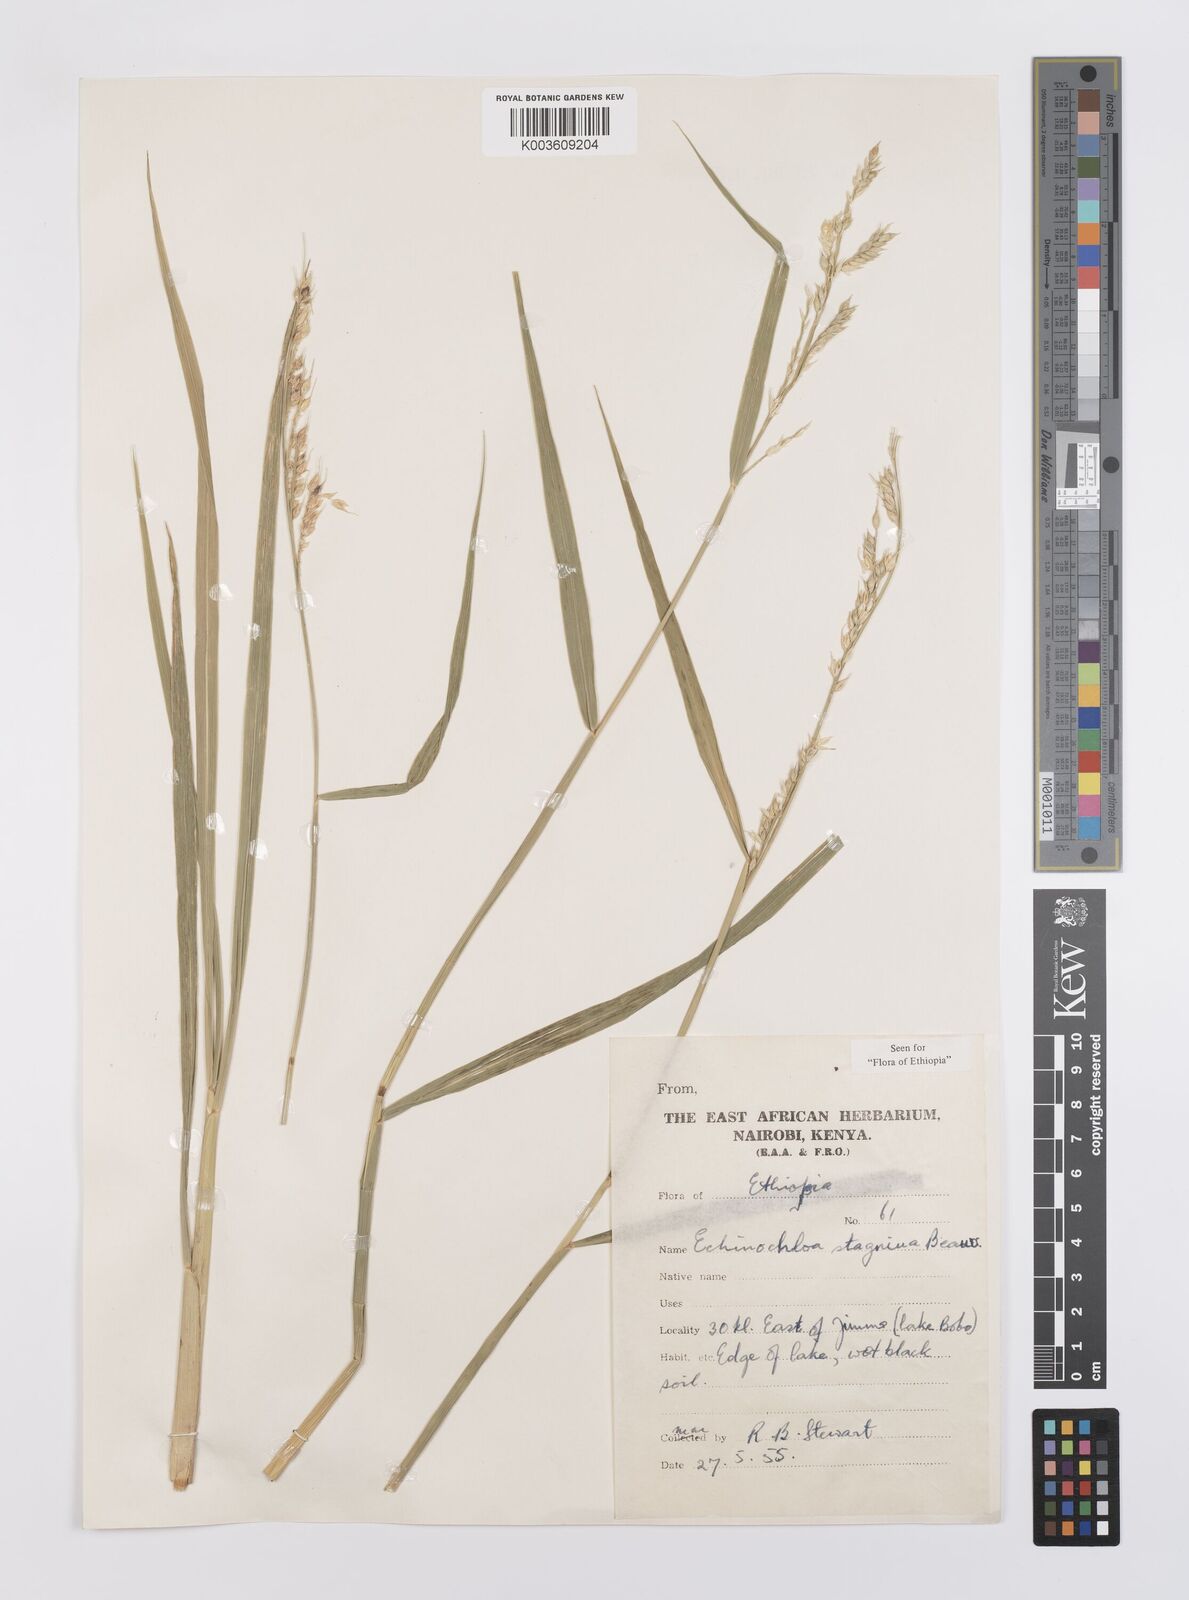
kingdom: Plantae
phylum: Tracheophyta
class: Liliopsida
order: Poales
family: Poaceae
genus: Echinochloa
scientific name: Echinochloa stagnina
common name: Burgu grass
